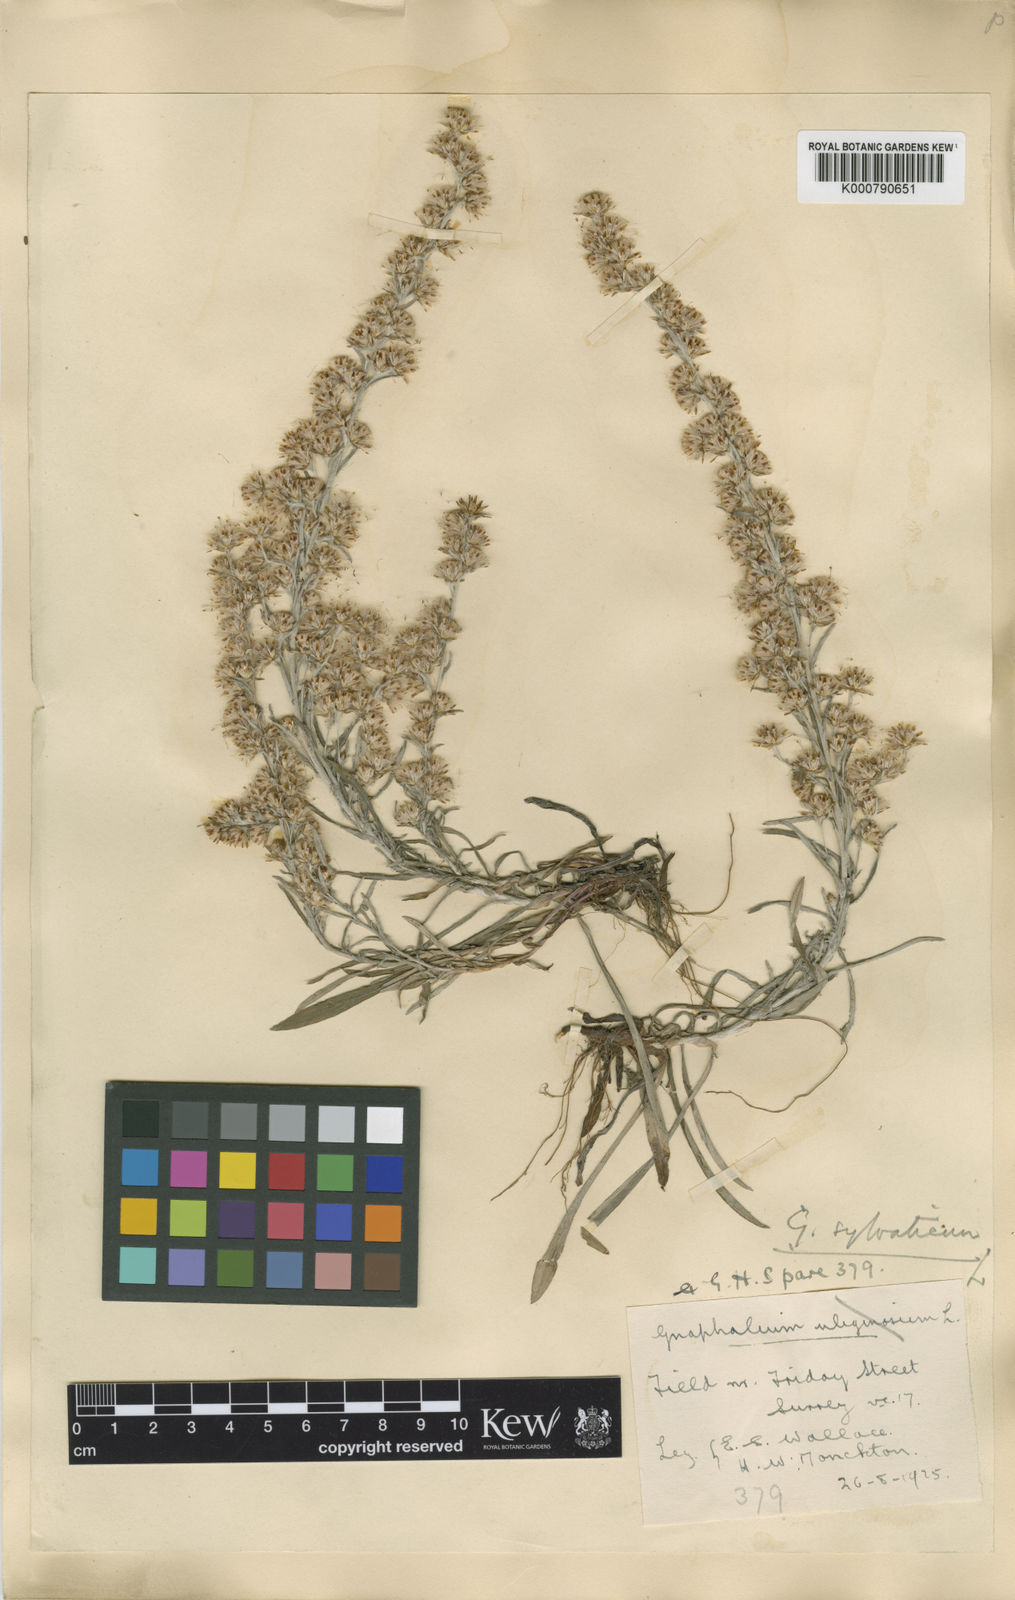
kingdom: Plantae
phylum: Tracheophyta
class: Magnoliopsida
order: Asterales
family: Asteraceae
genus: Omalotheca
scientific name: Omalotheca sylvatica
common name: Heath cudweed
